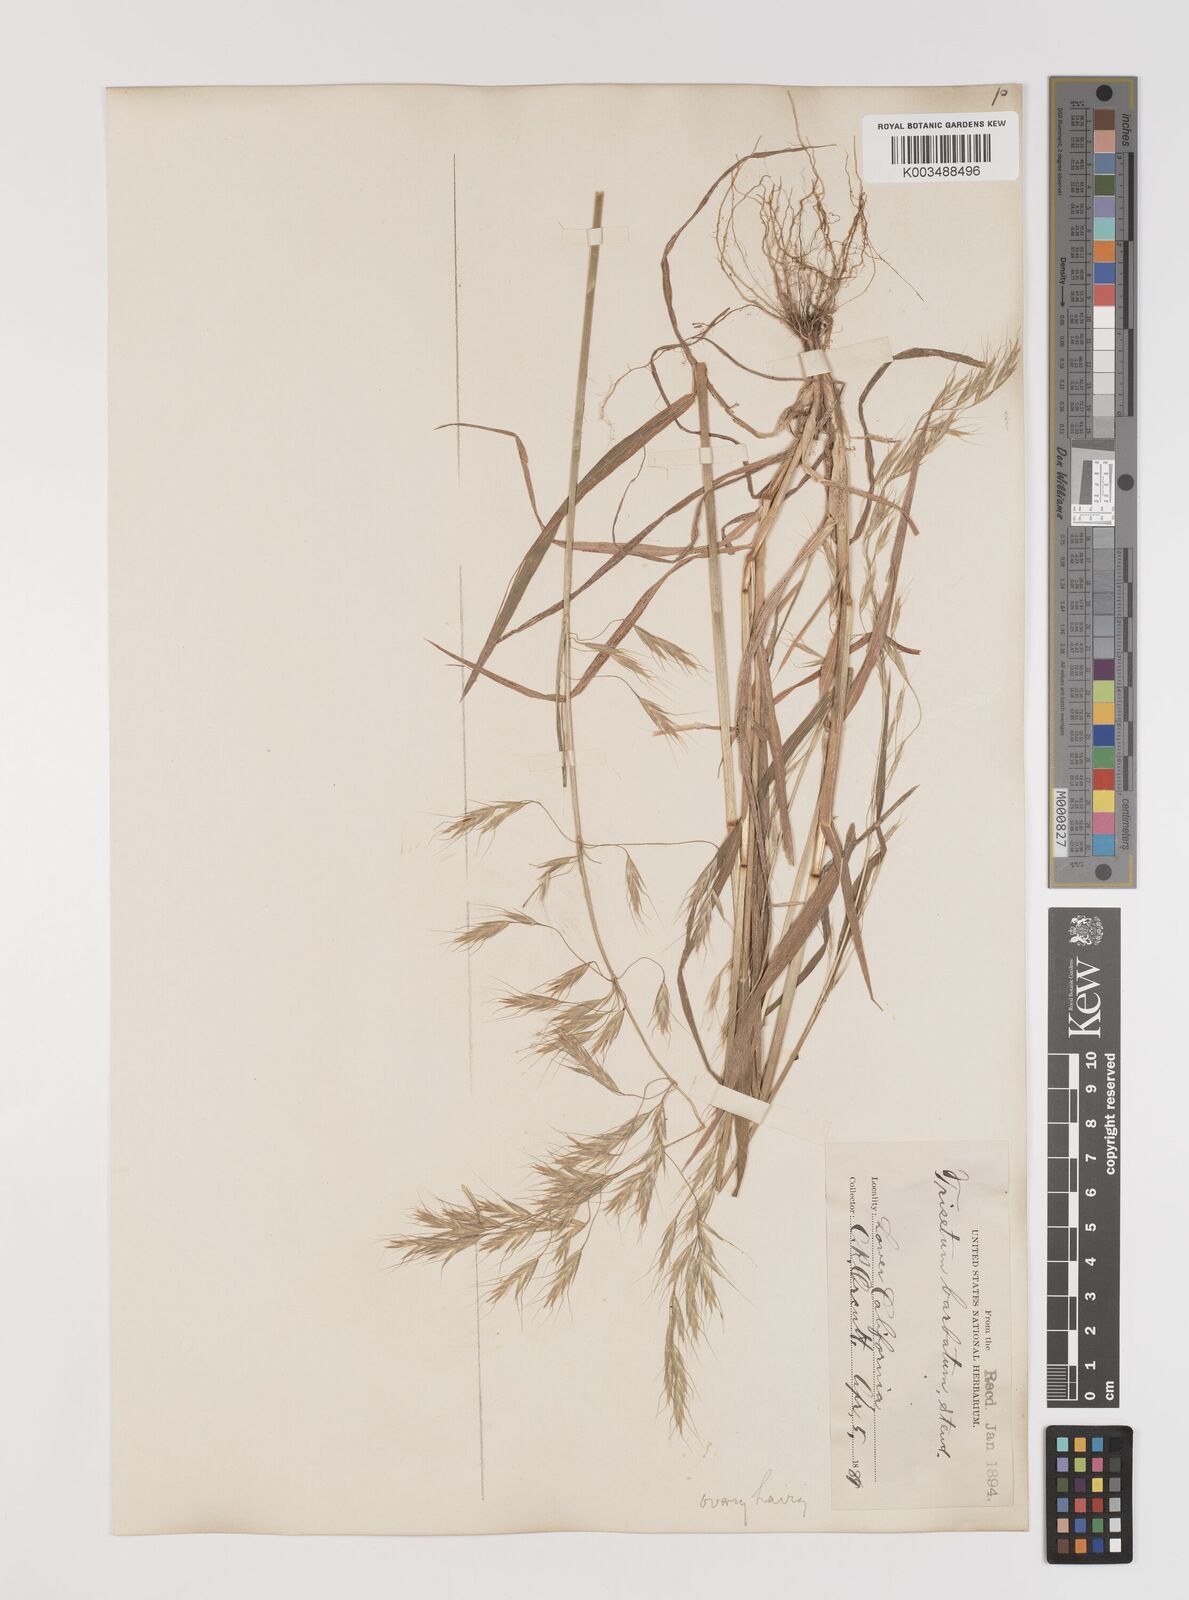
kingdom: Plantae
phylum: Tracheophyta
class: Liliopsida
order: Poales
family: Poaceae
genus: Bromus
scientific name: Bromus berteroanus
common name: Chilean chess
